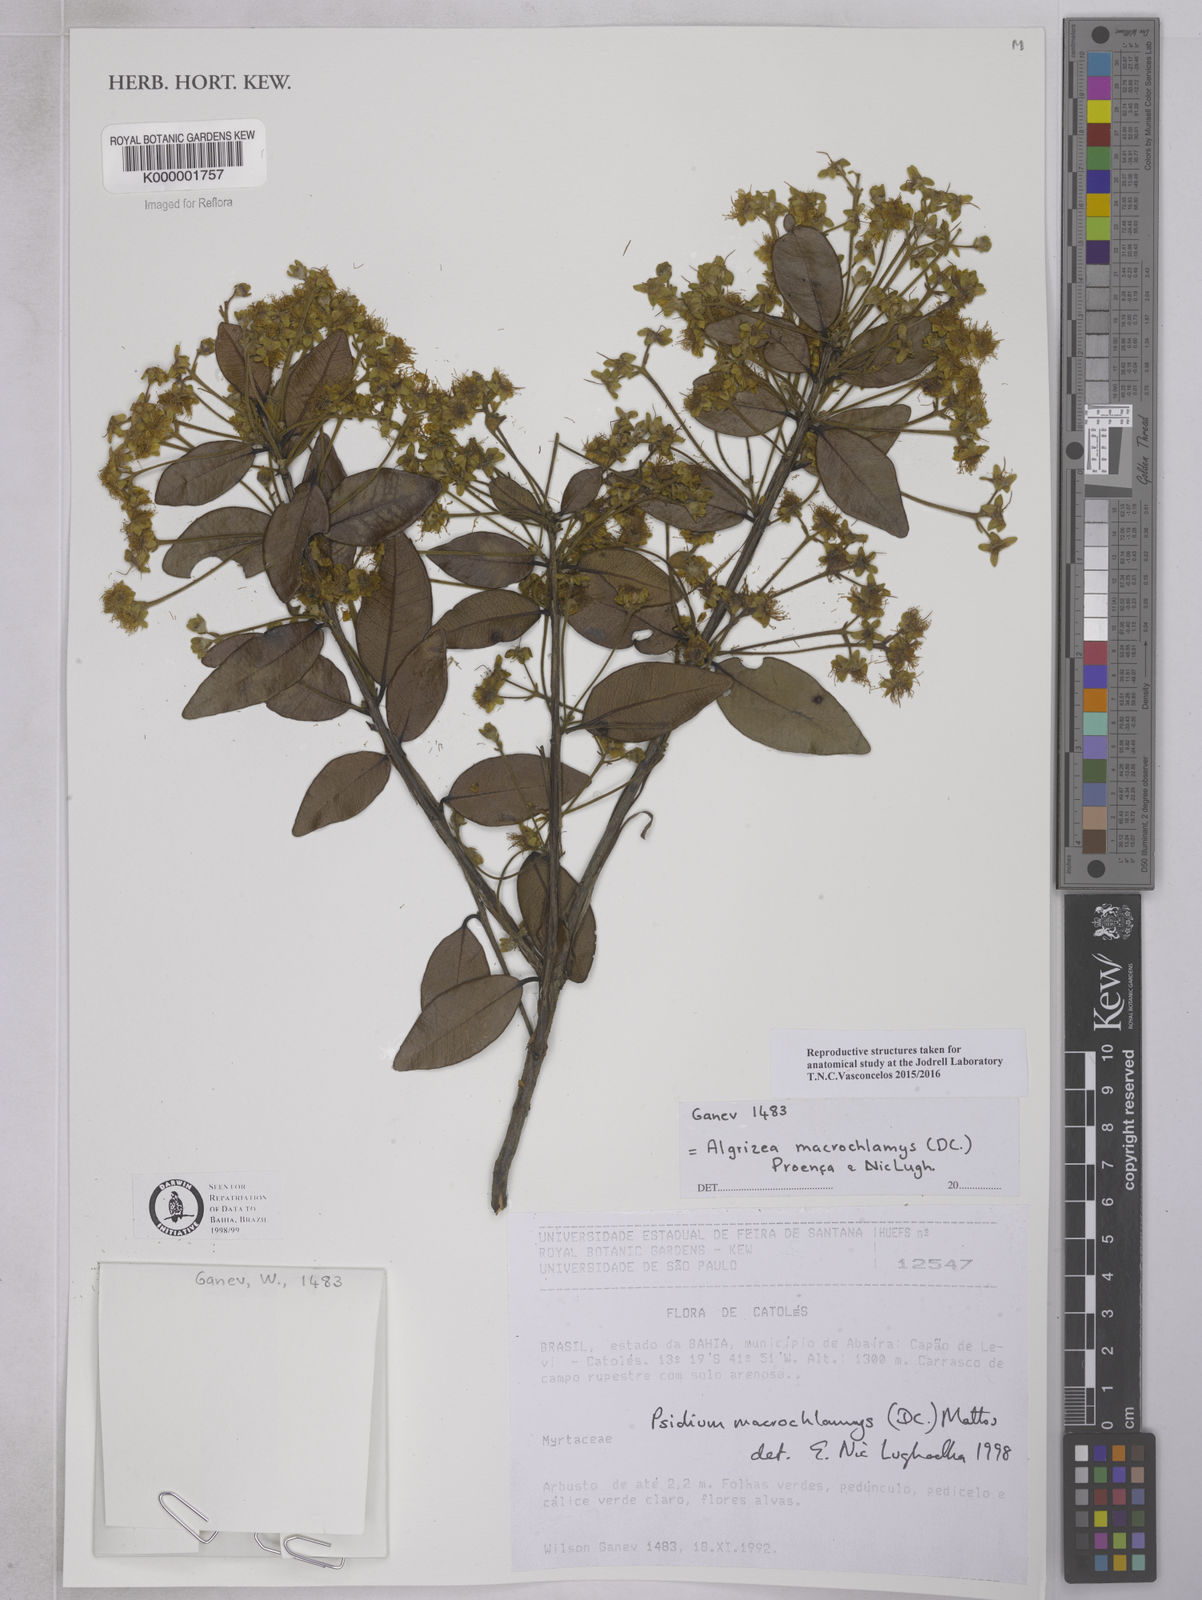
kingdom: Plantae
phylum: Tracheophyta
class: Magnoliopsida
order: Myrtales
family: Myrtaceae
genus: Algrizea
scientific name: Algrizea macrochlamys
